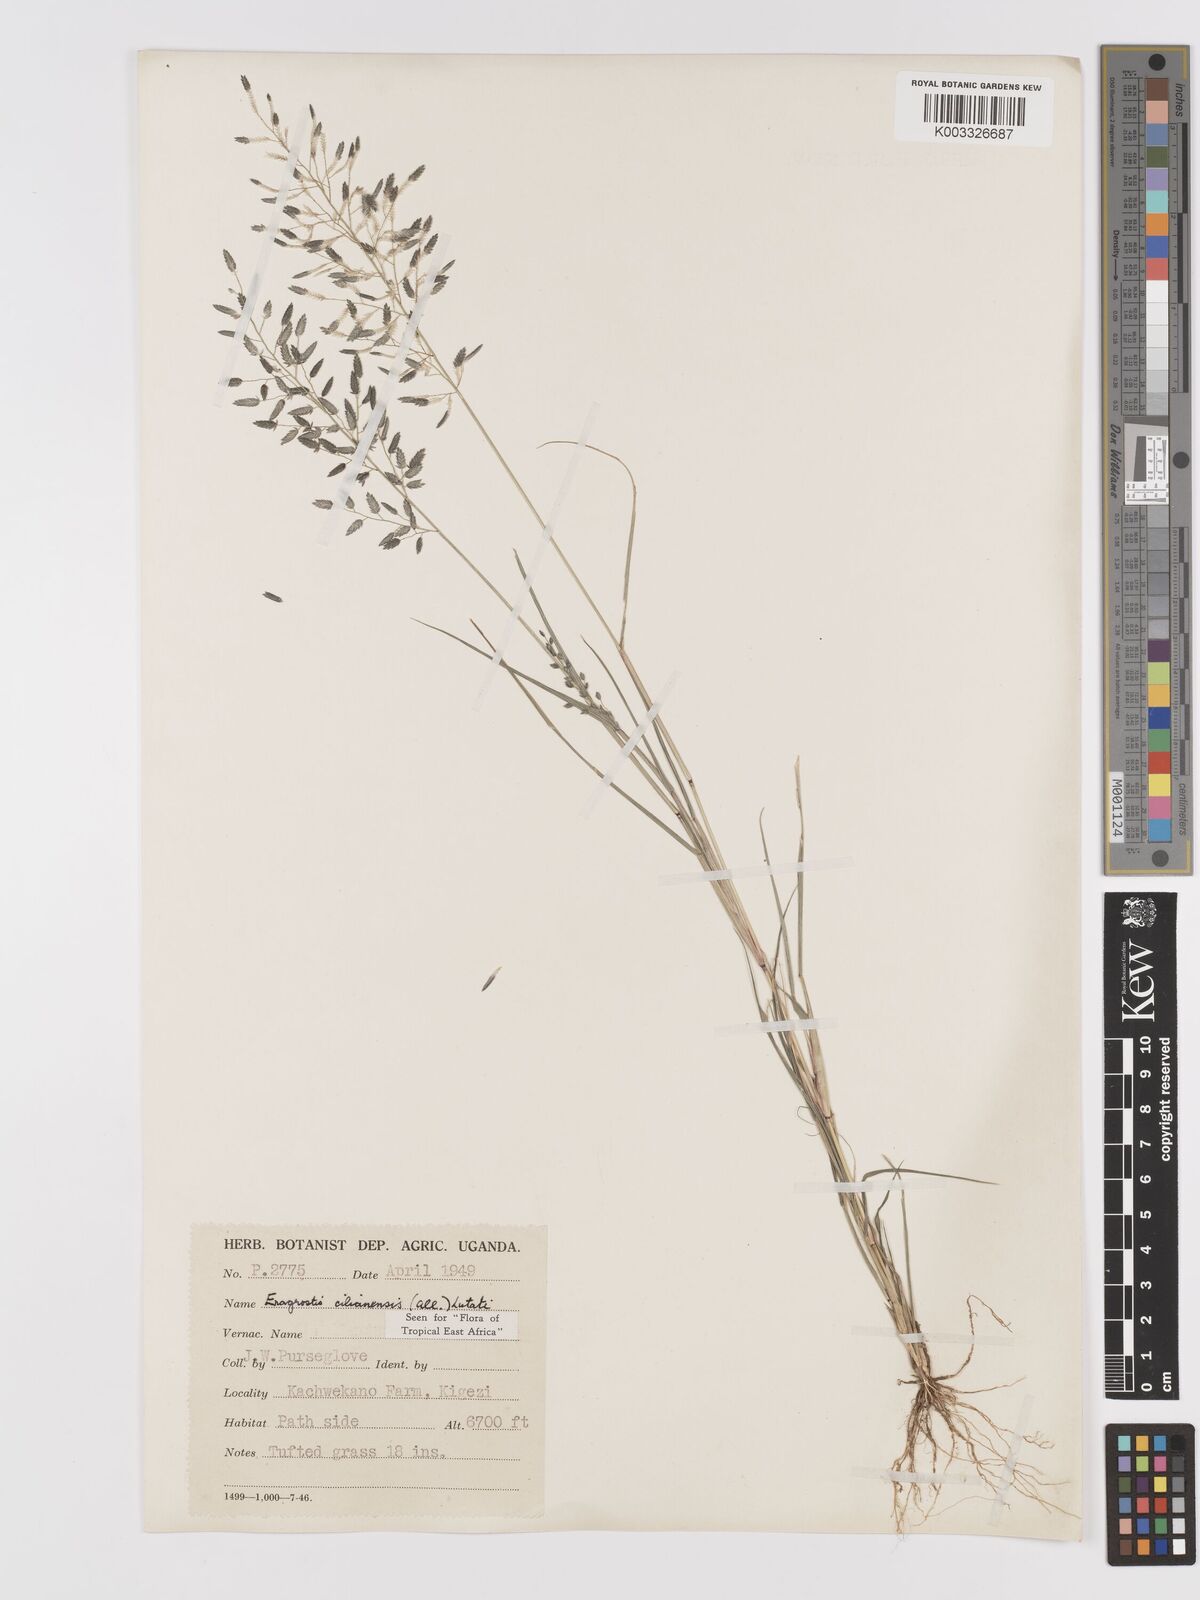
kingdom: Plantae
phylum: Tracheophyta
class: Liliopsida
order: Poales
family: Poaceae
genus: Eragrostis
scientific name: Eragrostis cilianensis
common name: Stinkgrass
